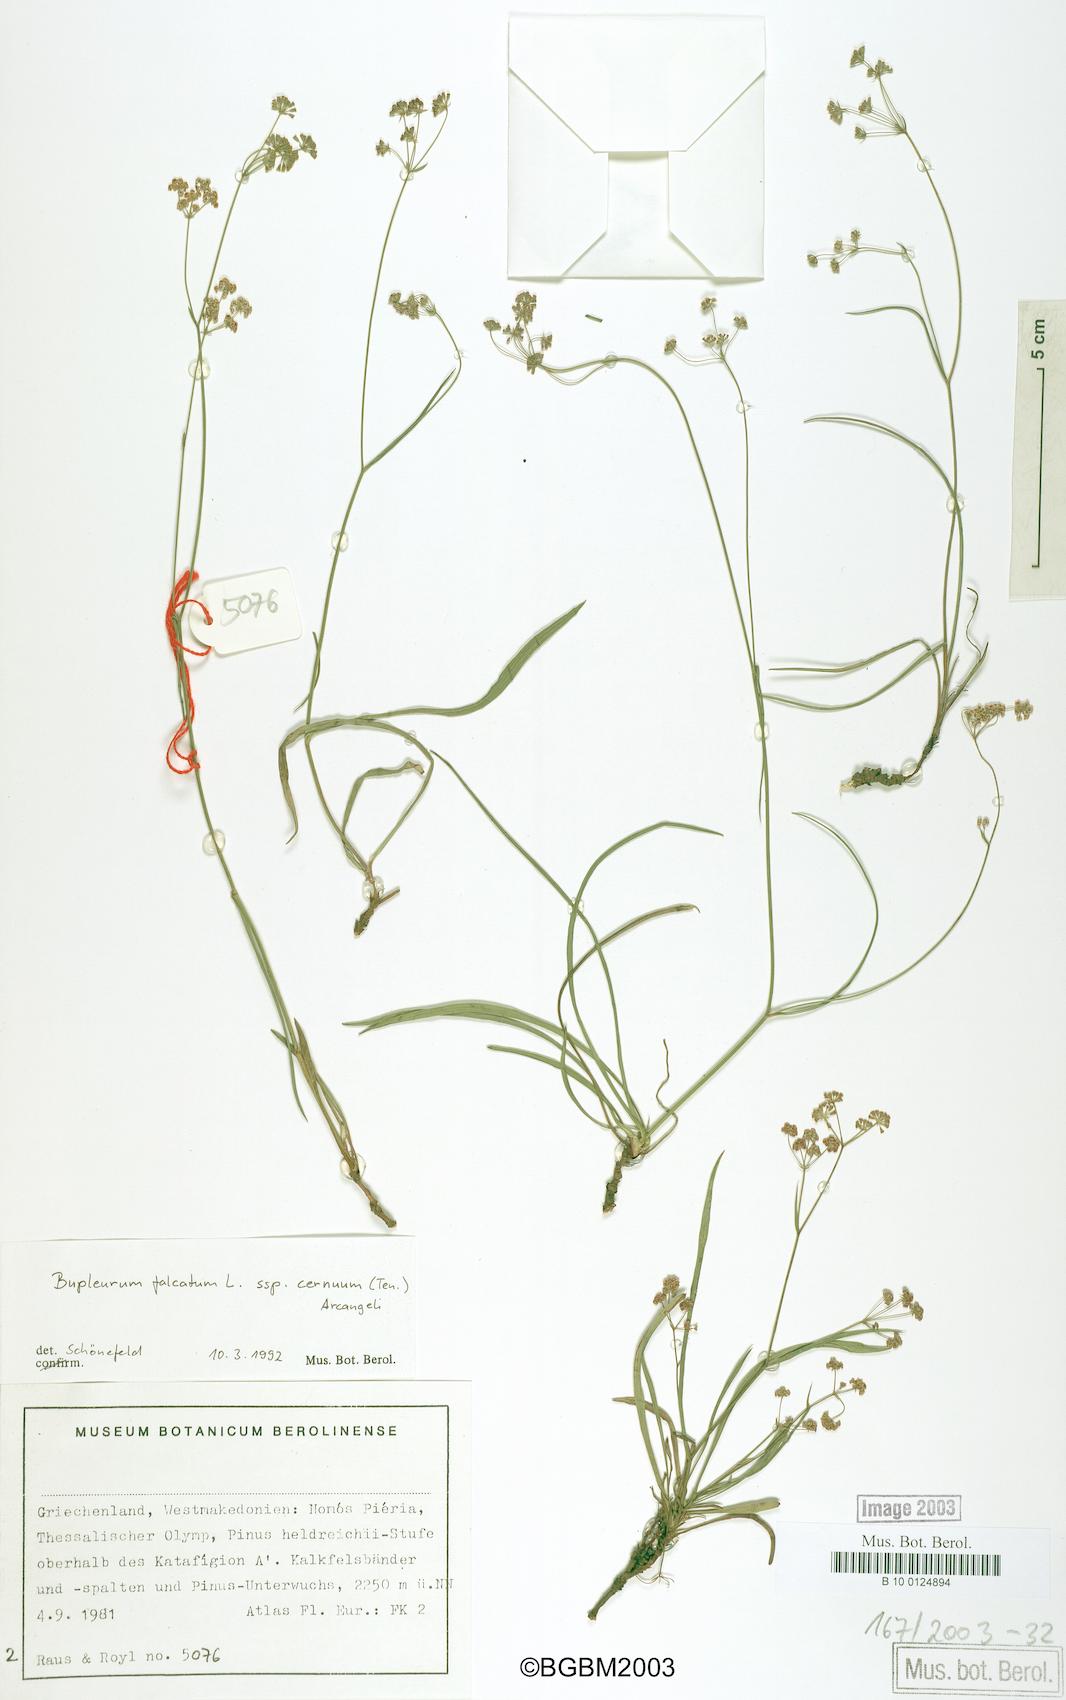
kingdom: Plantae
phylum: Tracheophyta
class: Magnoliopsida
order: Apiales
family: Apiaceae
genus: Bupleurum
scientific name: Bupleurum falcatum
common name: Sickle-leaved hare's-ear
